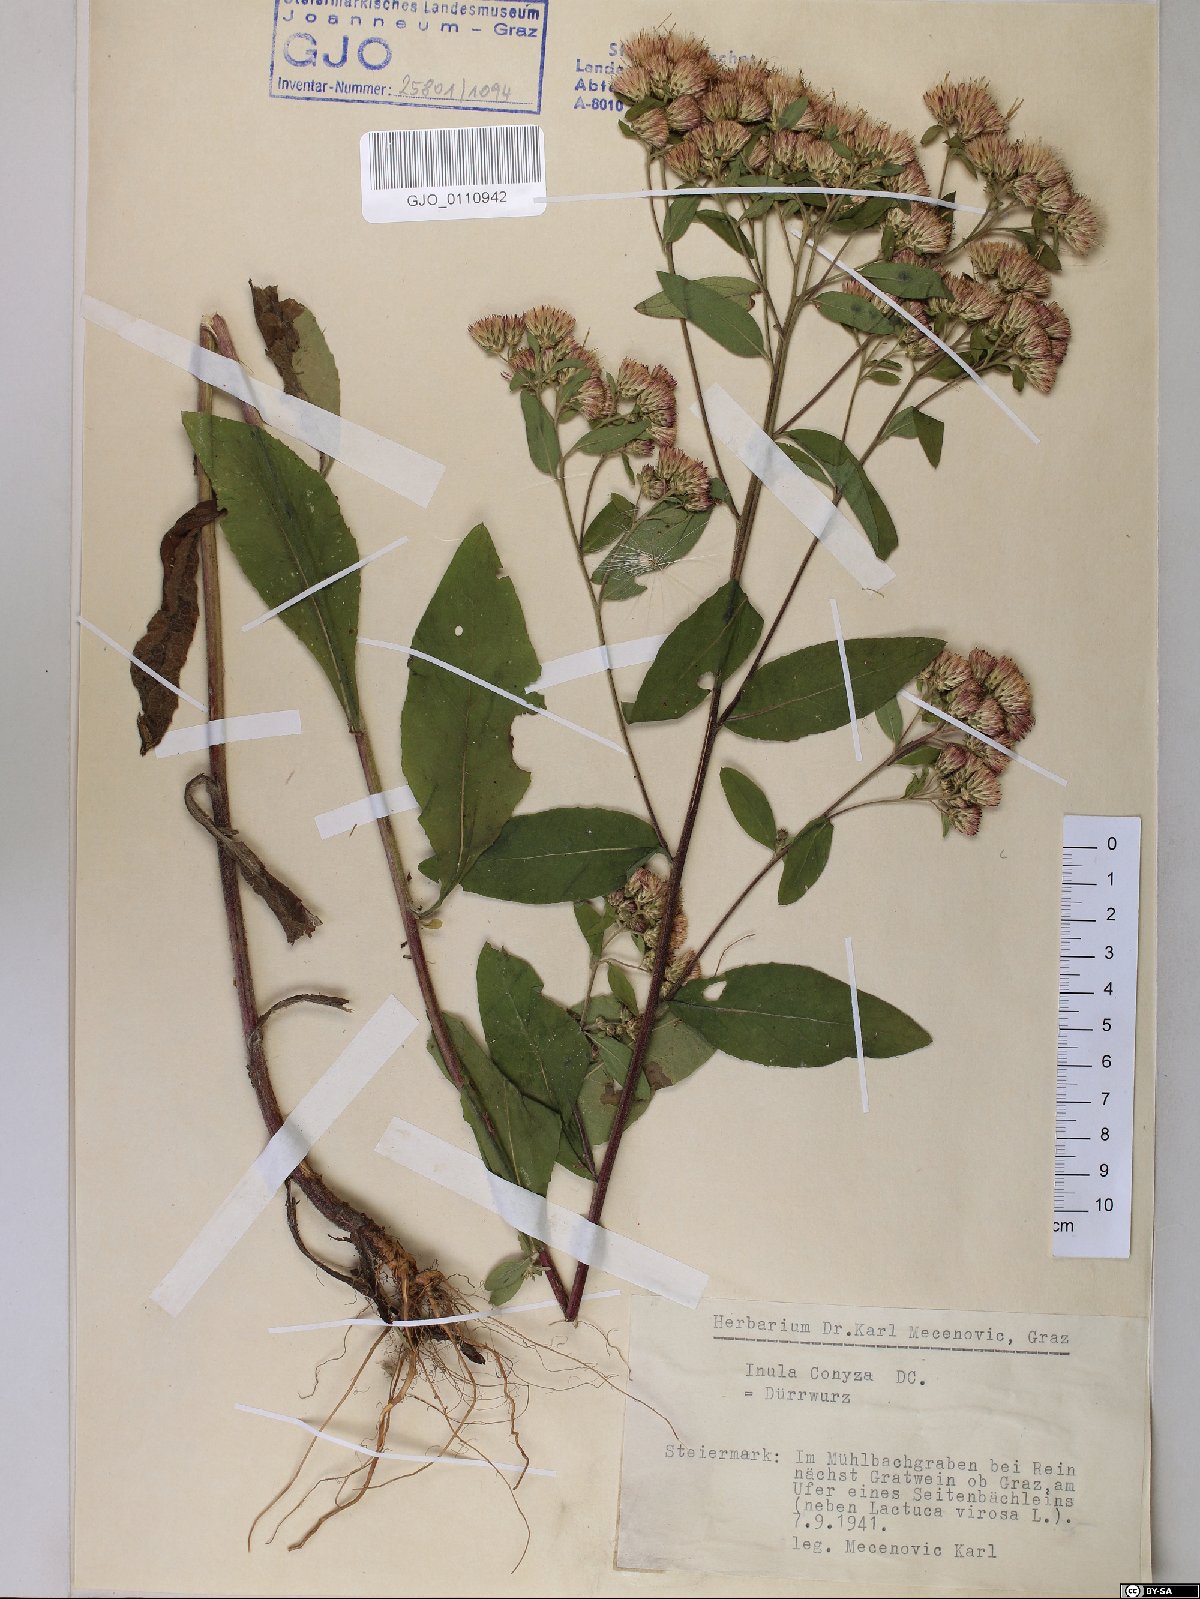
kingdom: Plantae
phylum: Tracheophyta
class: Magnoliopsida
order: Asterales
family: Asteraceae
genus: Pentanema
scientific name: Pentanema squarrosum
